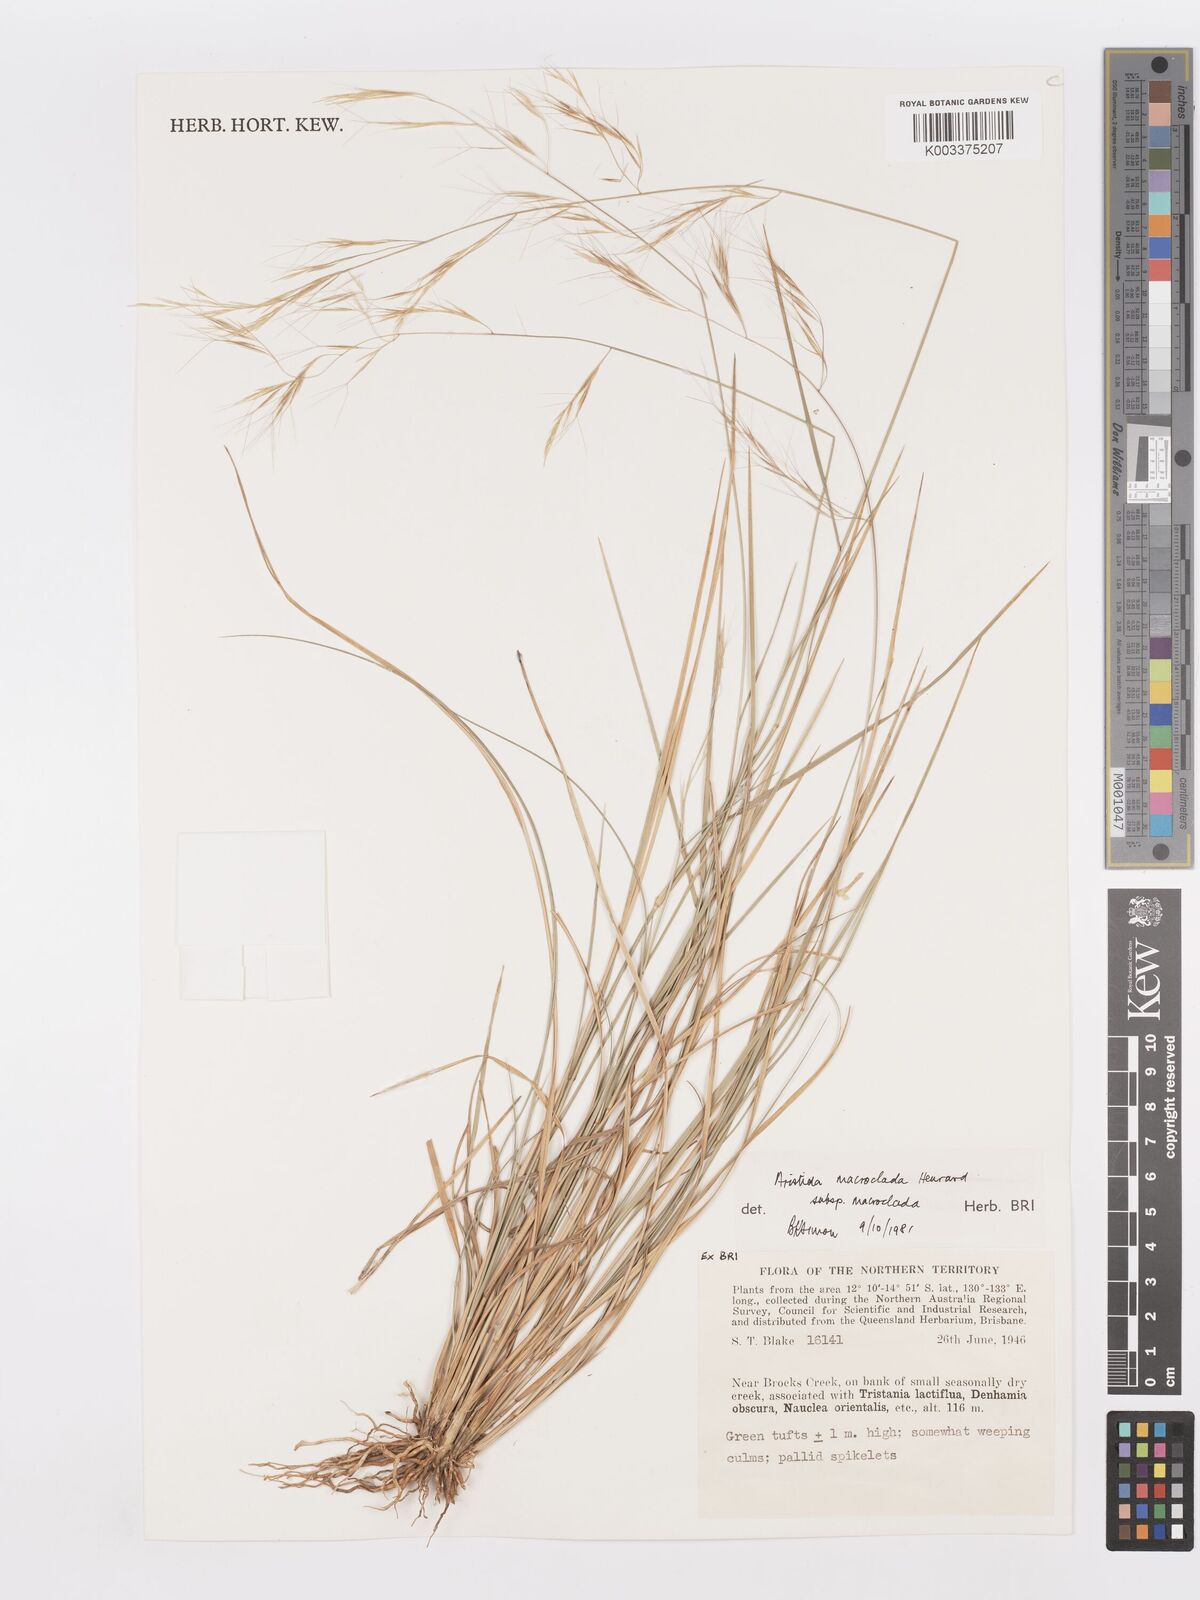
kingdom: Plantae
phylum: Tracheophyta
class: Liliopsida
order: Poales
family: Poaceae
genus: Aristida
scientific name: Aristida macroclada
